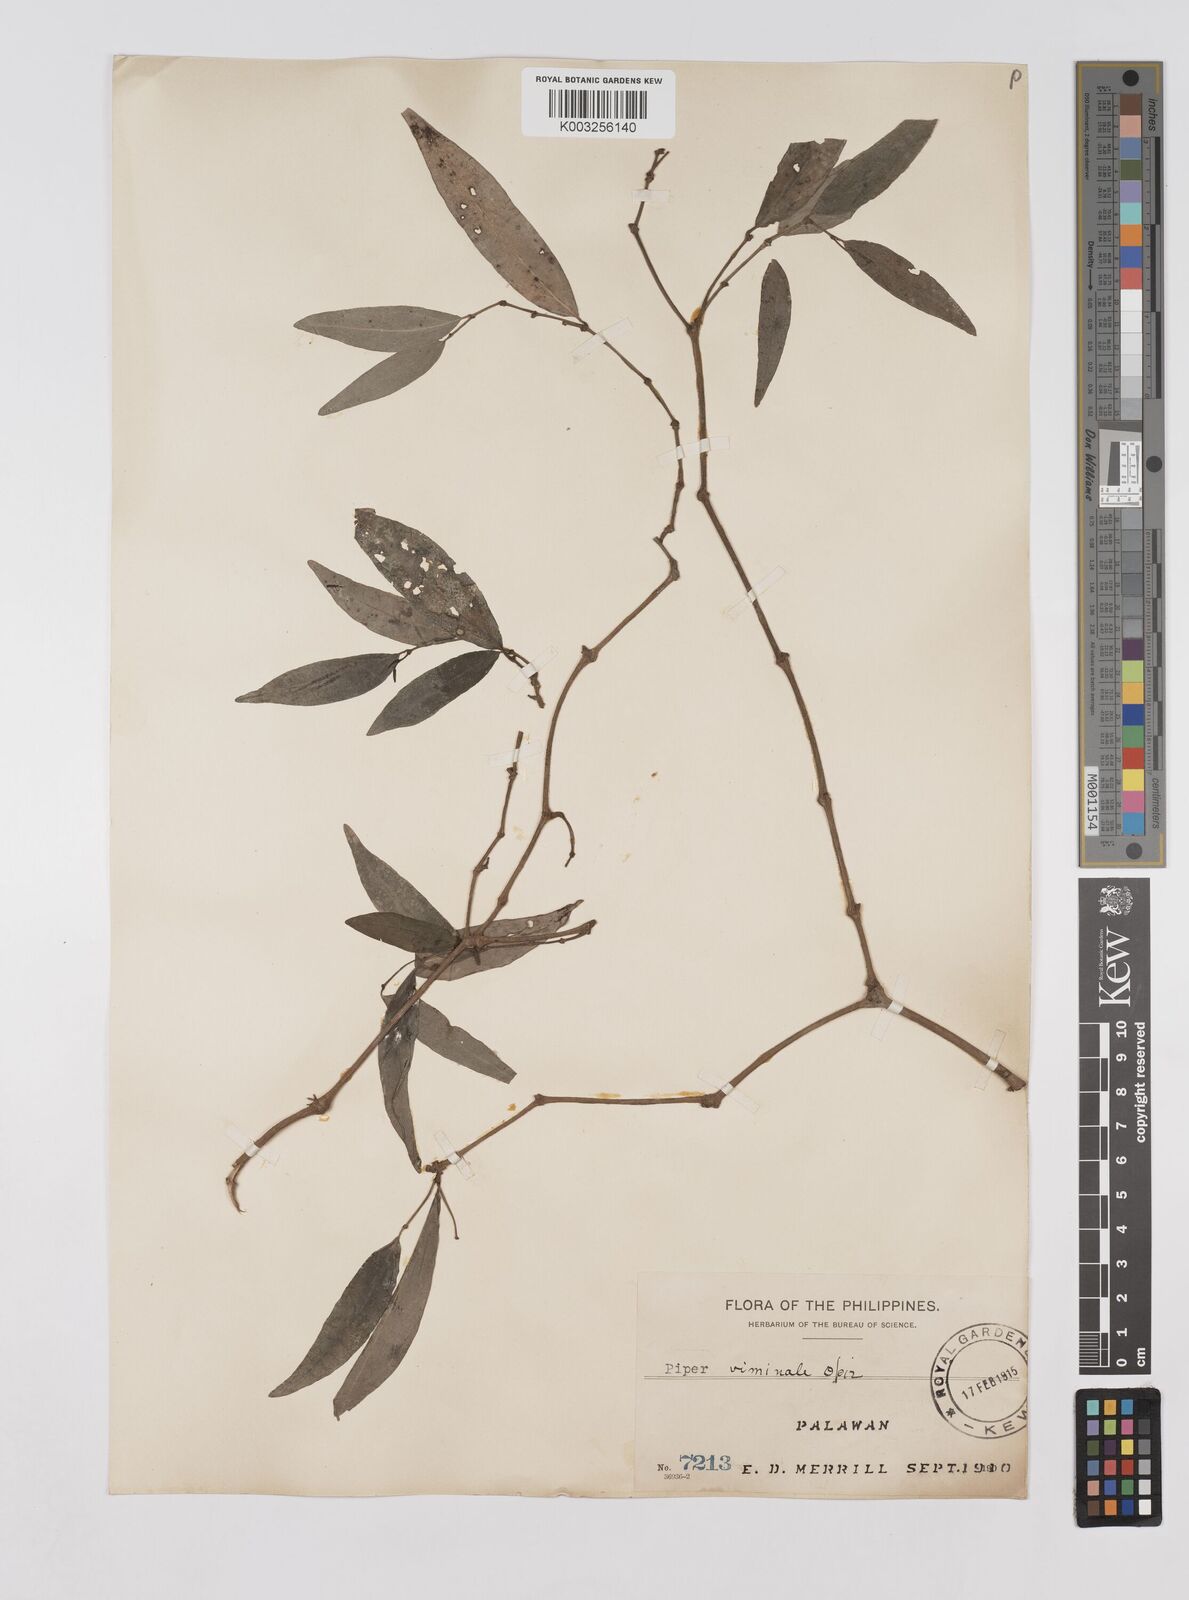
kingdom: Plantae
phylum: Tracheophyta
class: Magnoliopsida
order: Piperales
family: Piperaceae
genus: Piper
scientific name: Piper lanatum
